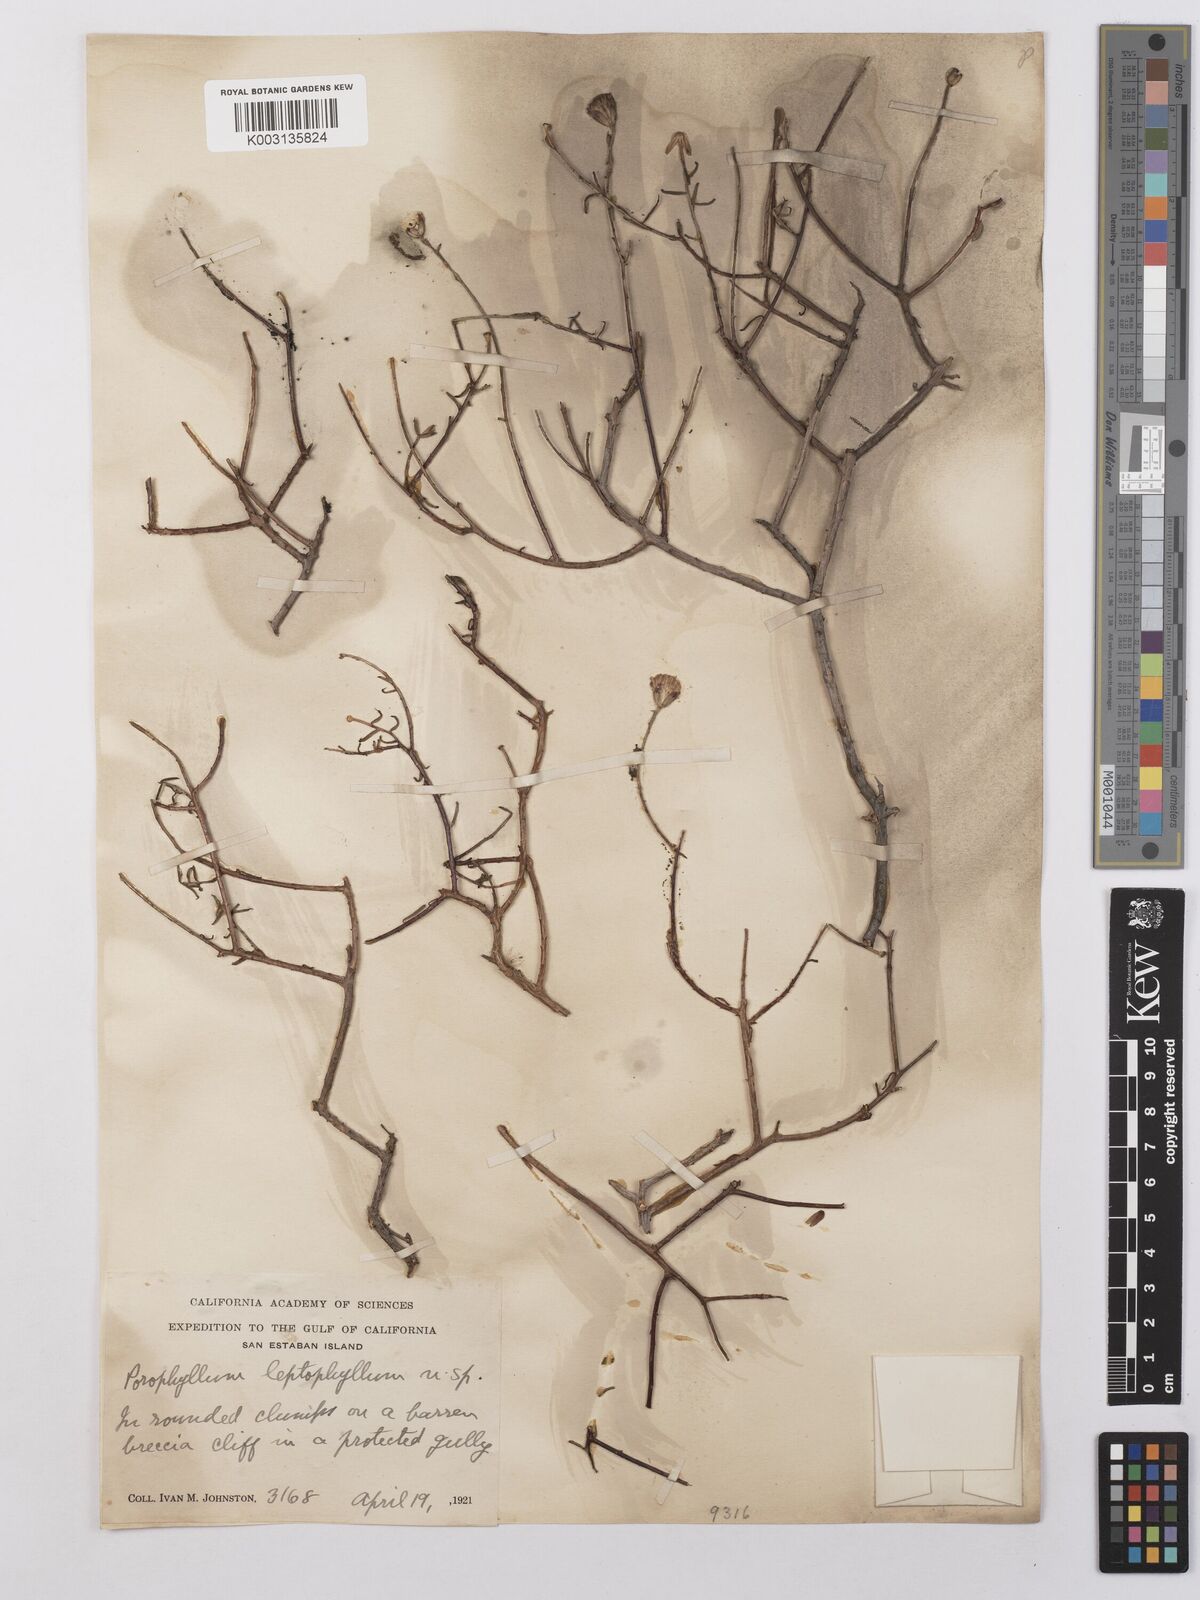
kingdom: Plantae
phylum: Tracheophyta
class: Magnoliopsida
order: Asterales
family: Asteraceae
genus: Bajacalia
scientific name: Bajacalia crassifolia
